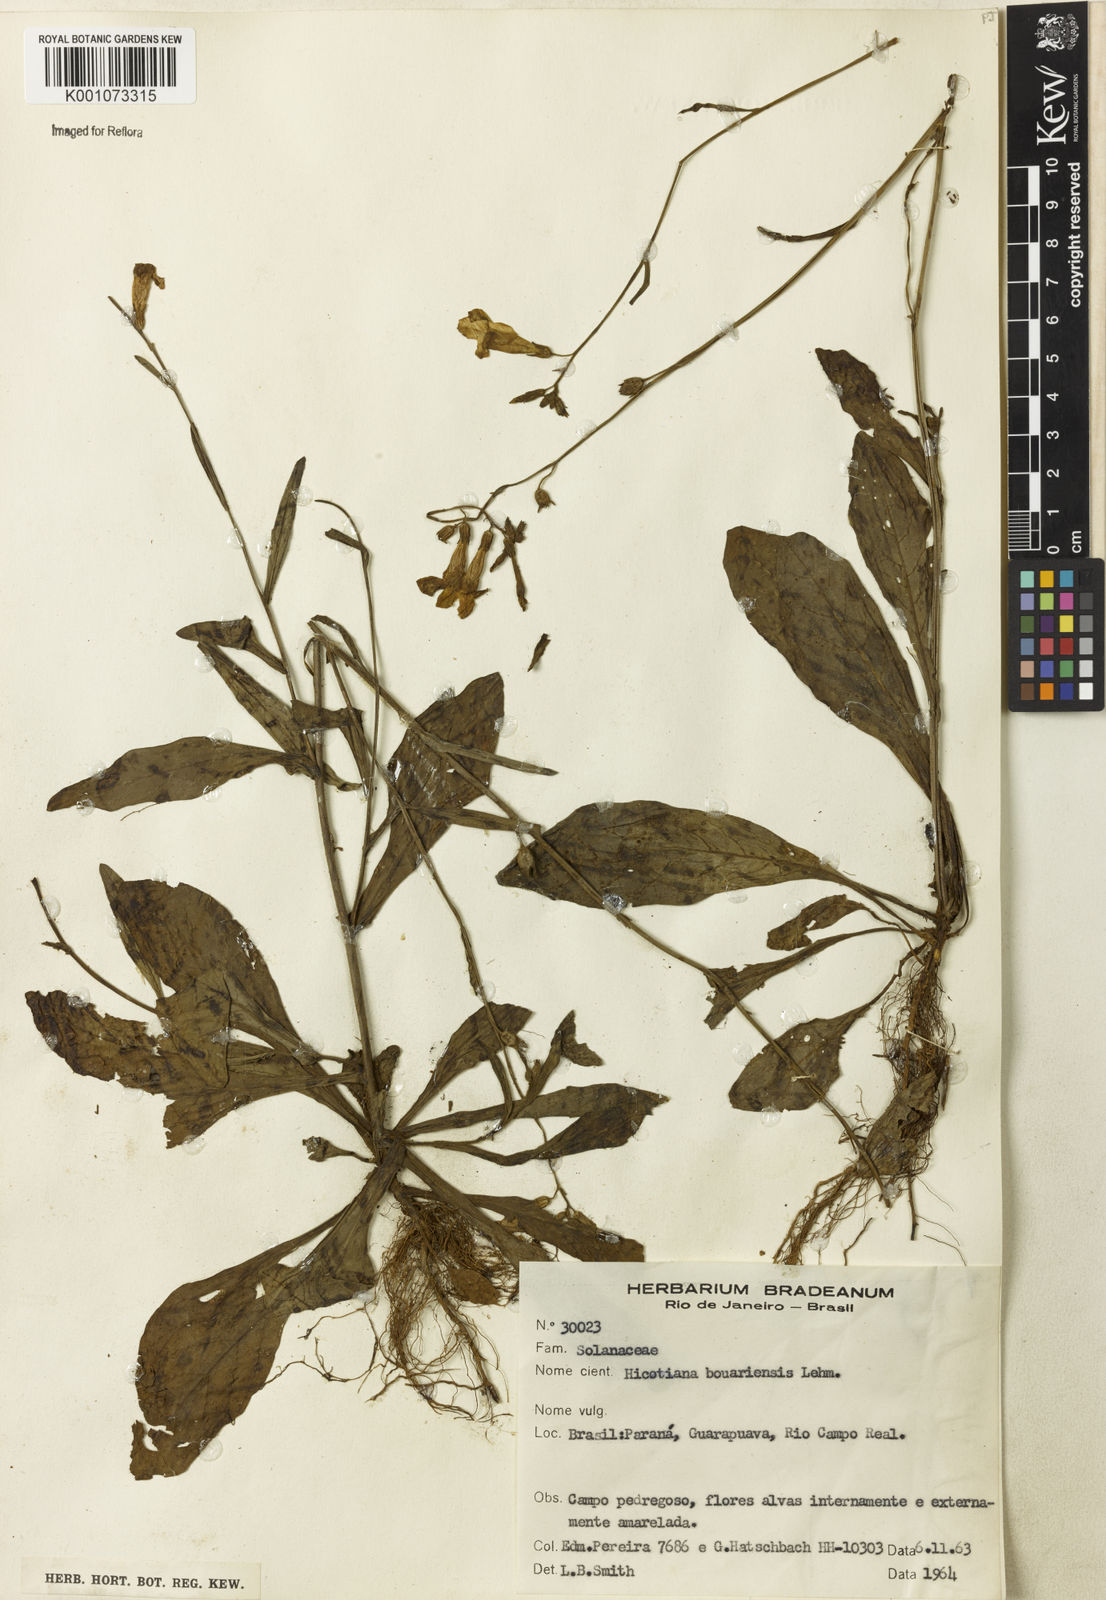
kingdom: Plantae
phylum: Tracheophyta
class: Magnoliopsida
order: Solanales
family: Solanaceae
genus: Nicotiana
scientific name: Nicotiana bonariensis
